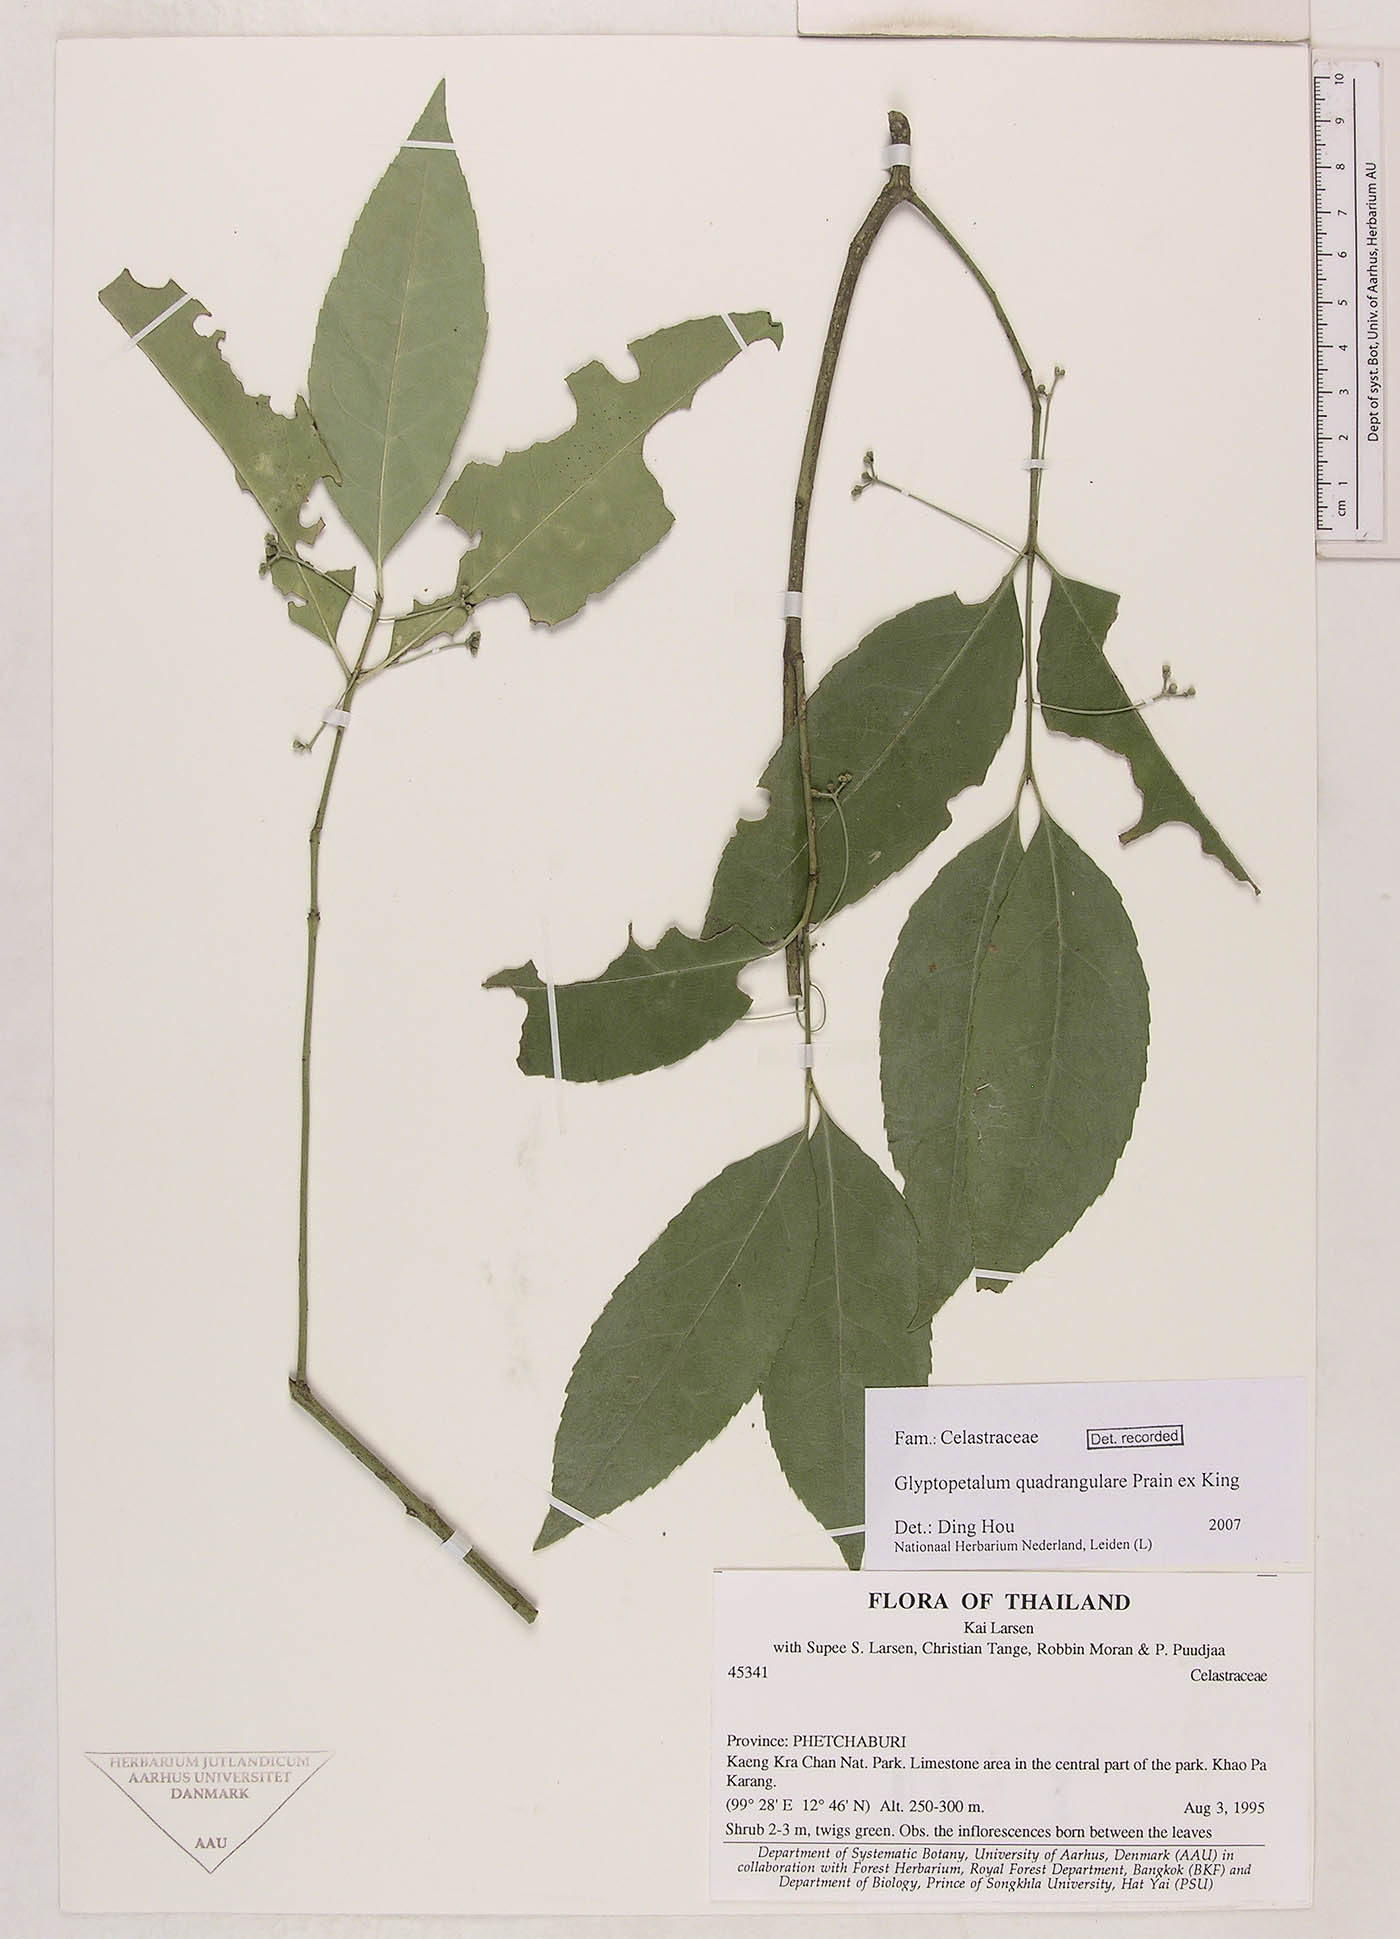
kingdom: Plantae
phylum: Tracheophyta
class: Magnoliopsida
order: Celastrales
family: Celastraceae
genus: Euonymus
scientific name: Euonymus quadrangularis
